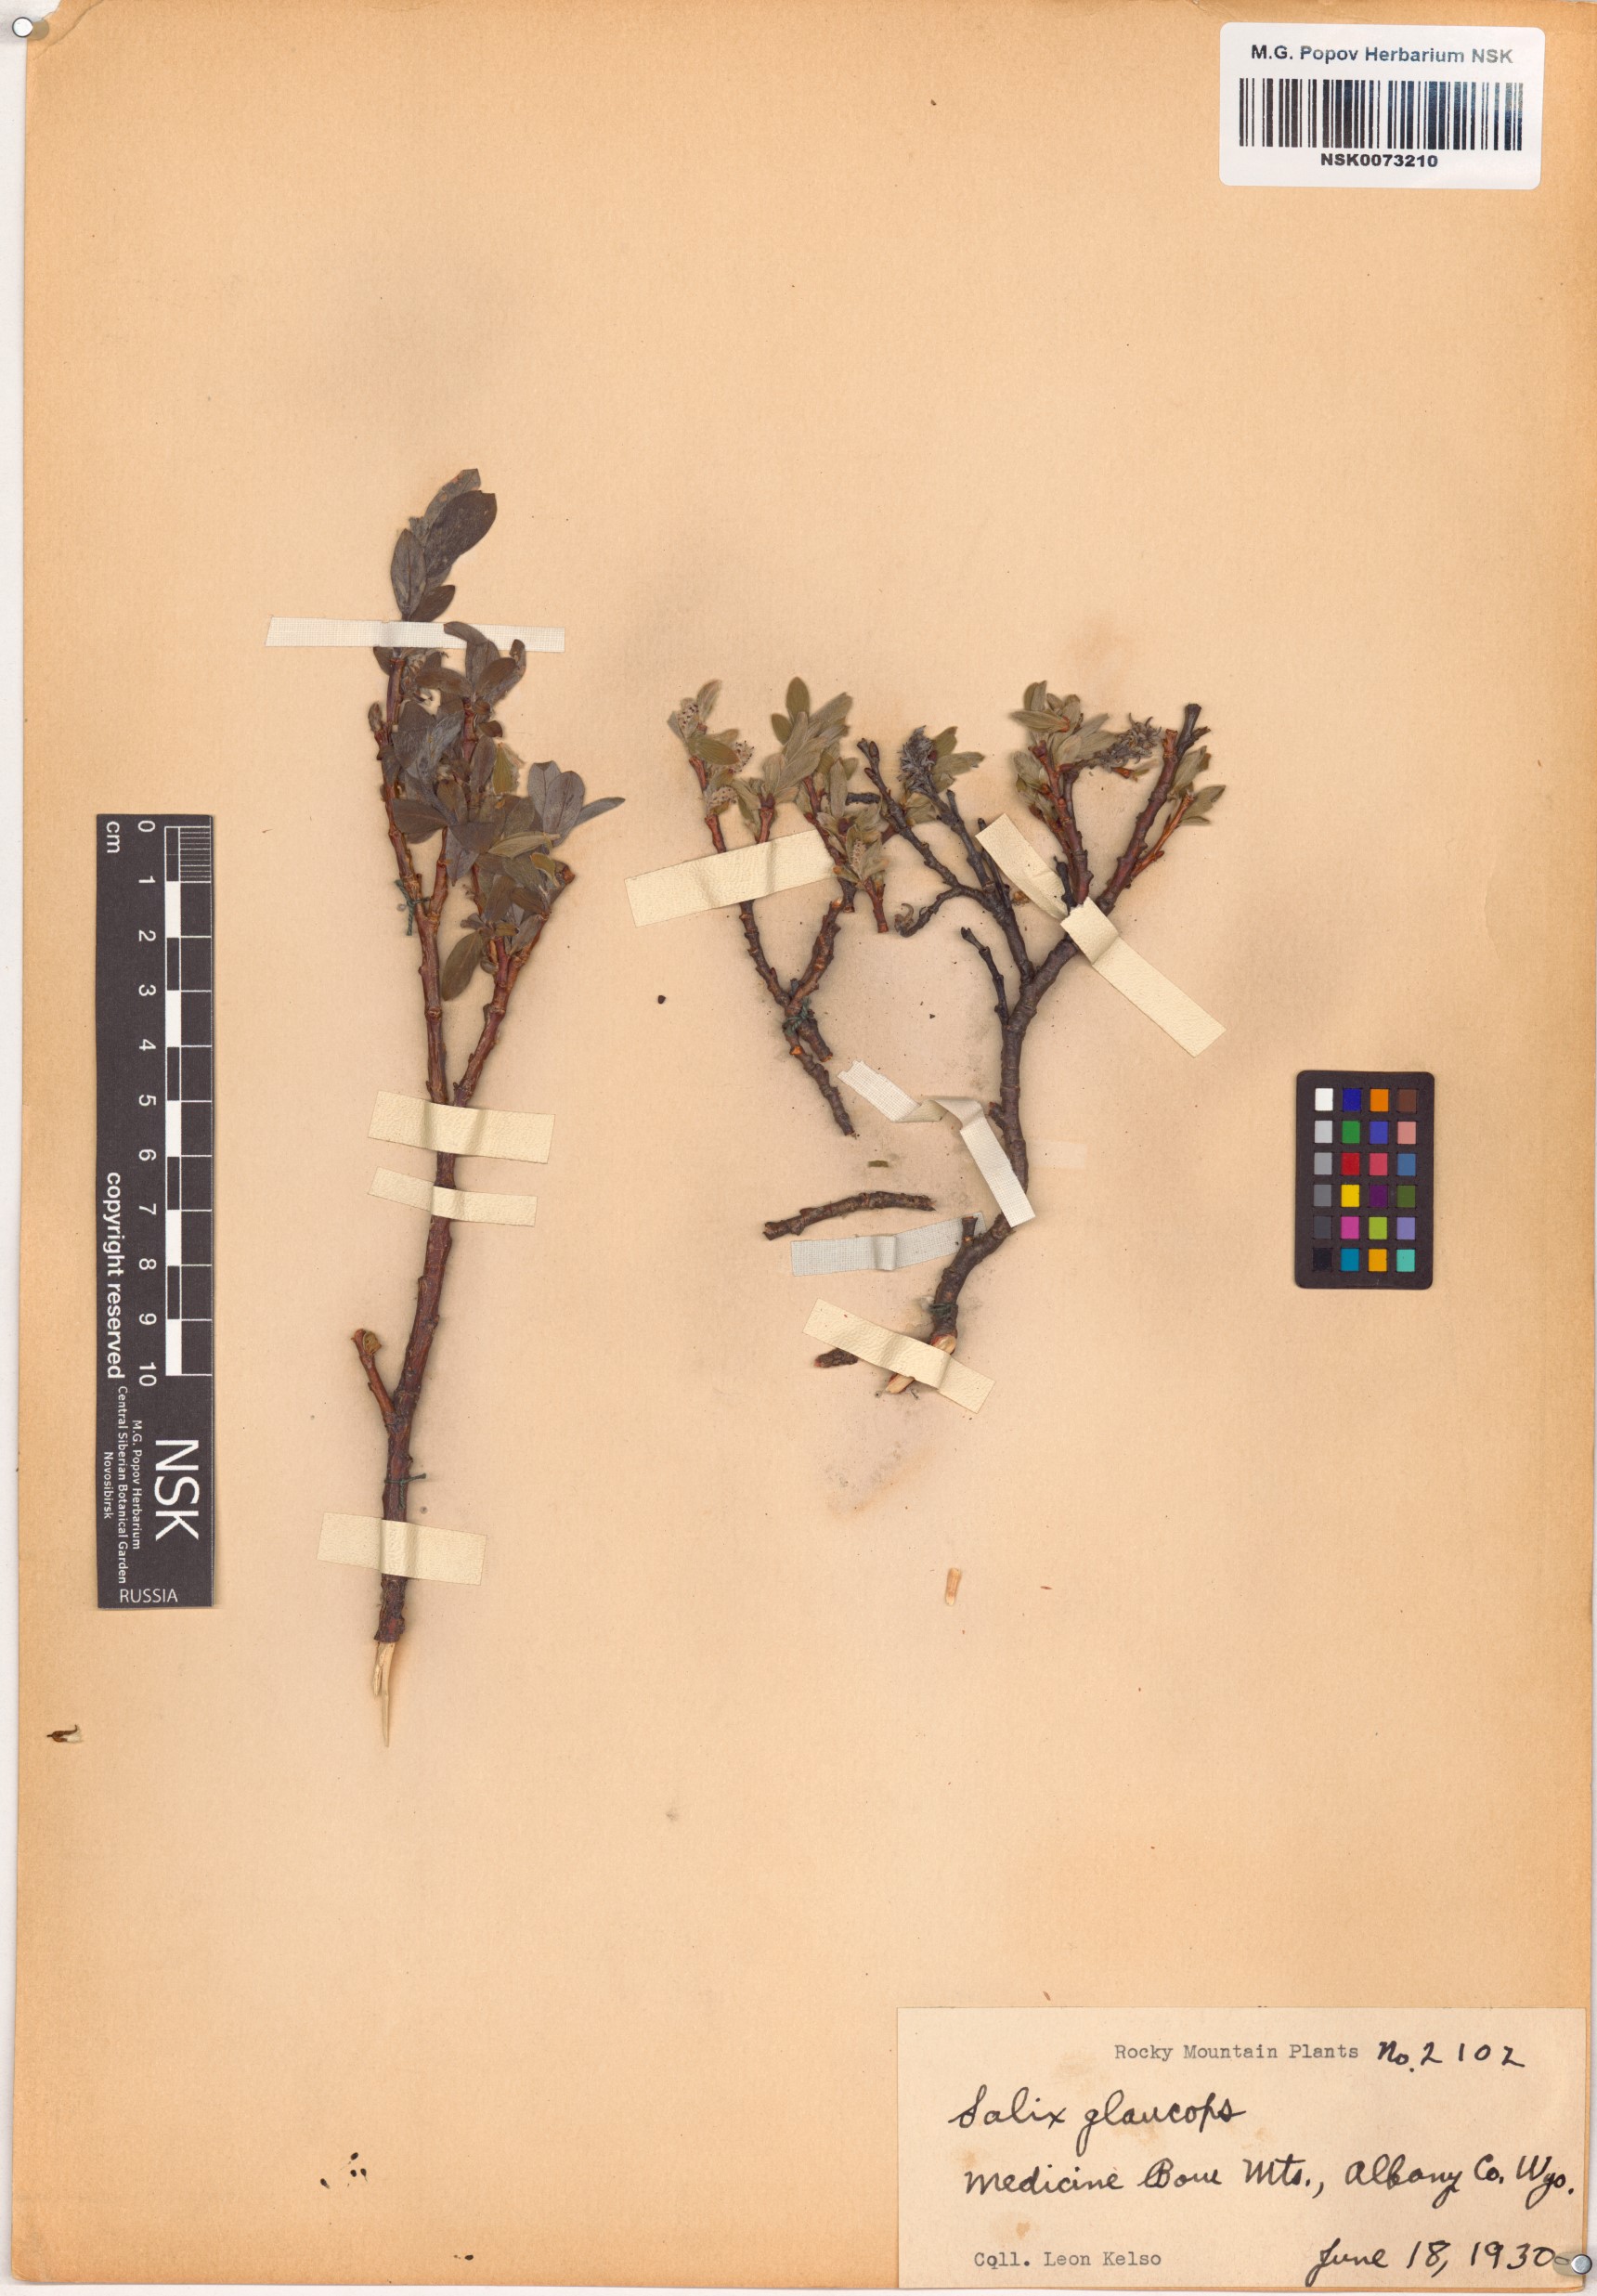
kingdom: Plantae
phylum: Tracheophyta
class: Magnoliopsida
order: Malpighiales
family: Salicaceae
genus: Salix
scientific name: Salix glauca
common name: Glaucous willow
